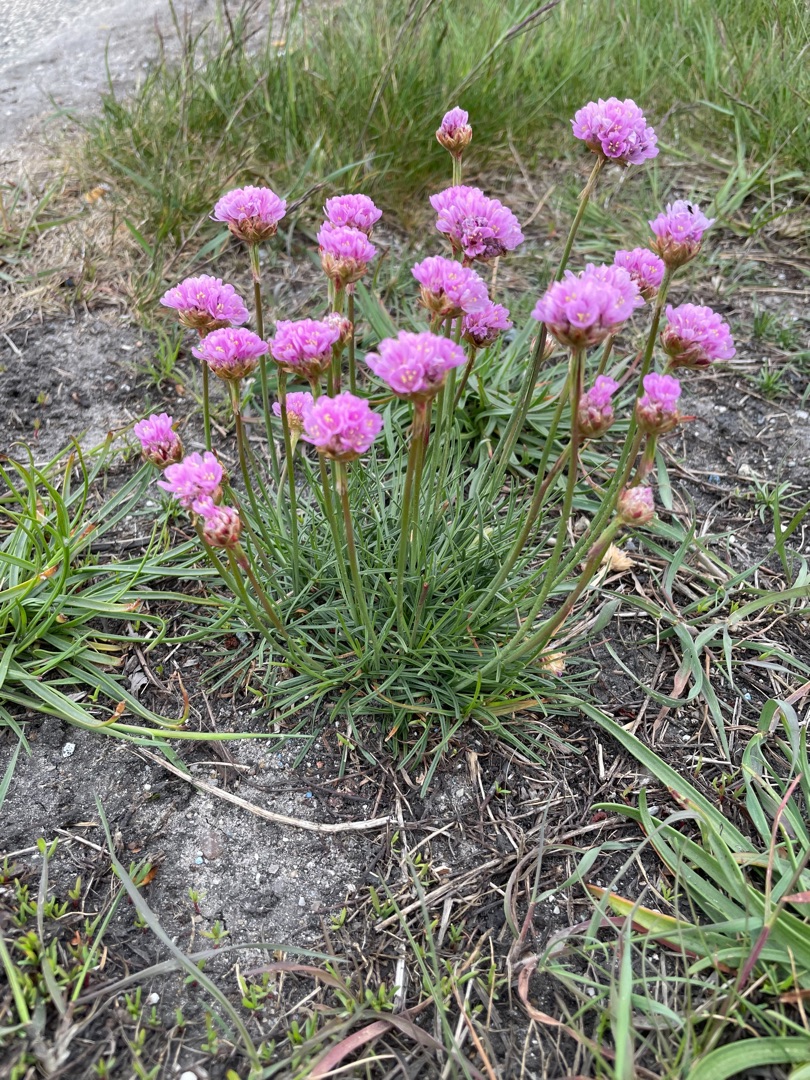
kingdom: Plantae
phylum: Tracheophyta
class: Magnoliopsida
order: Caryophyllales
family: Plumbaginaceae
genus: Armeria
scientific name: Armeria maritima
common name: Engelskgræs
